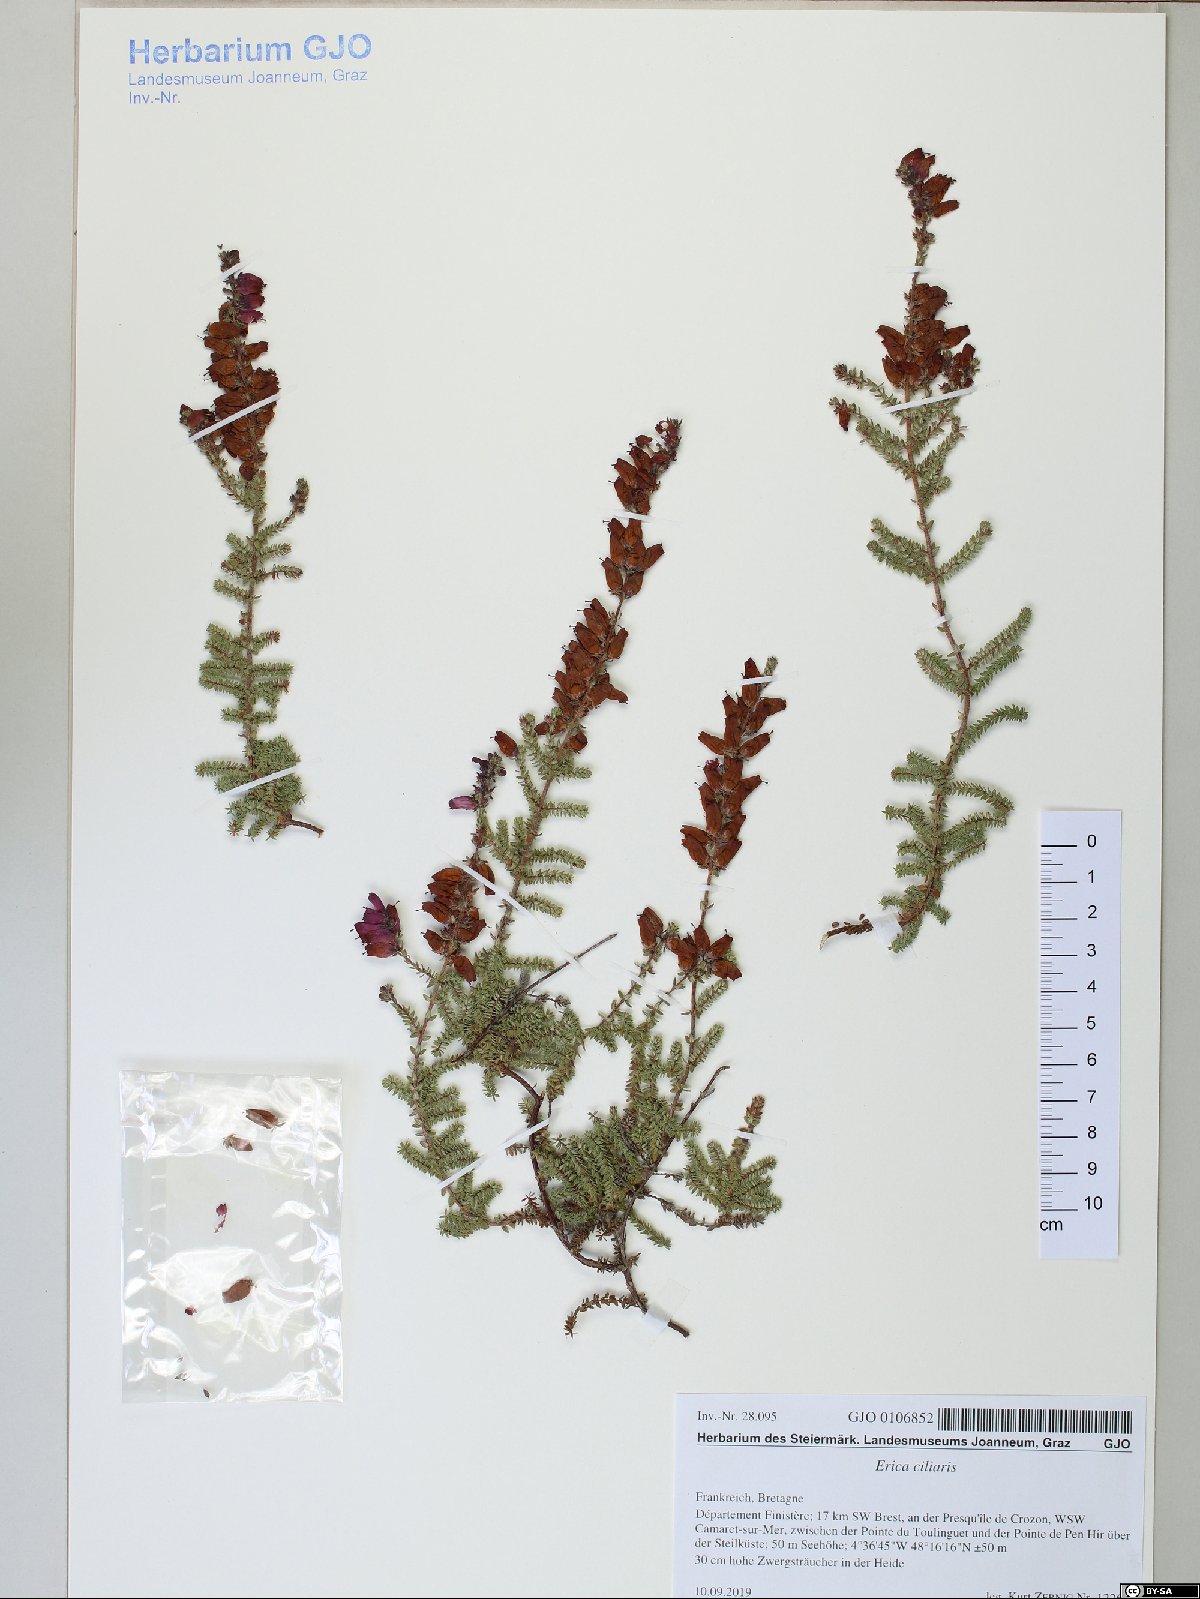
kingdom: Plantae
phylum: Tracheophyta
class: Magnoliopsida
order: Ericales
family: Ericaceae
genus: Erica
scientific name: Erica ciliaris
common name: Dorset heath
